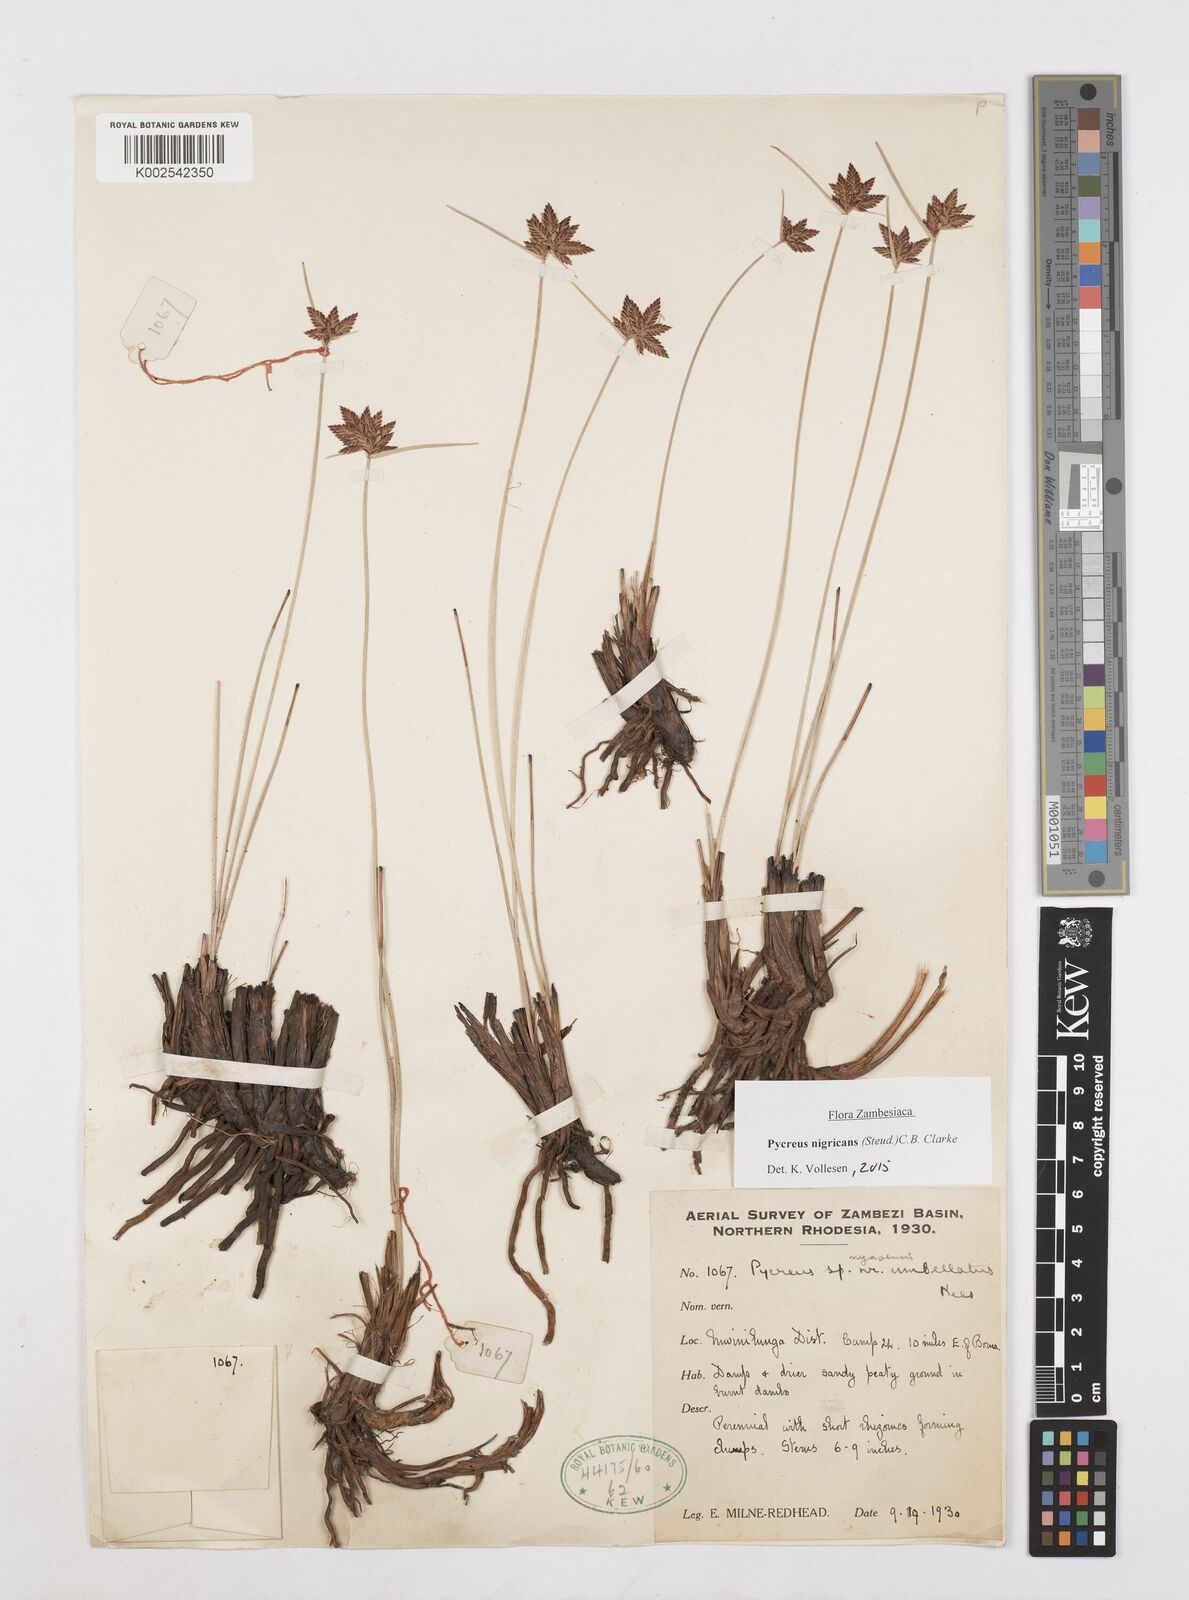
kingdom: Plantae
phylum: Tracheophyta
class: Liliopsida
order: Poales
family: Cyperaceae
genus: Cyperus
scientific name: Cyperus nigricans
